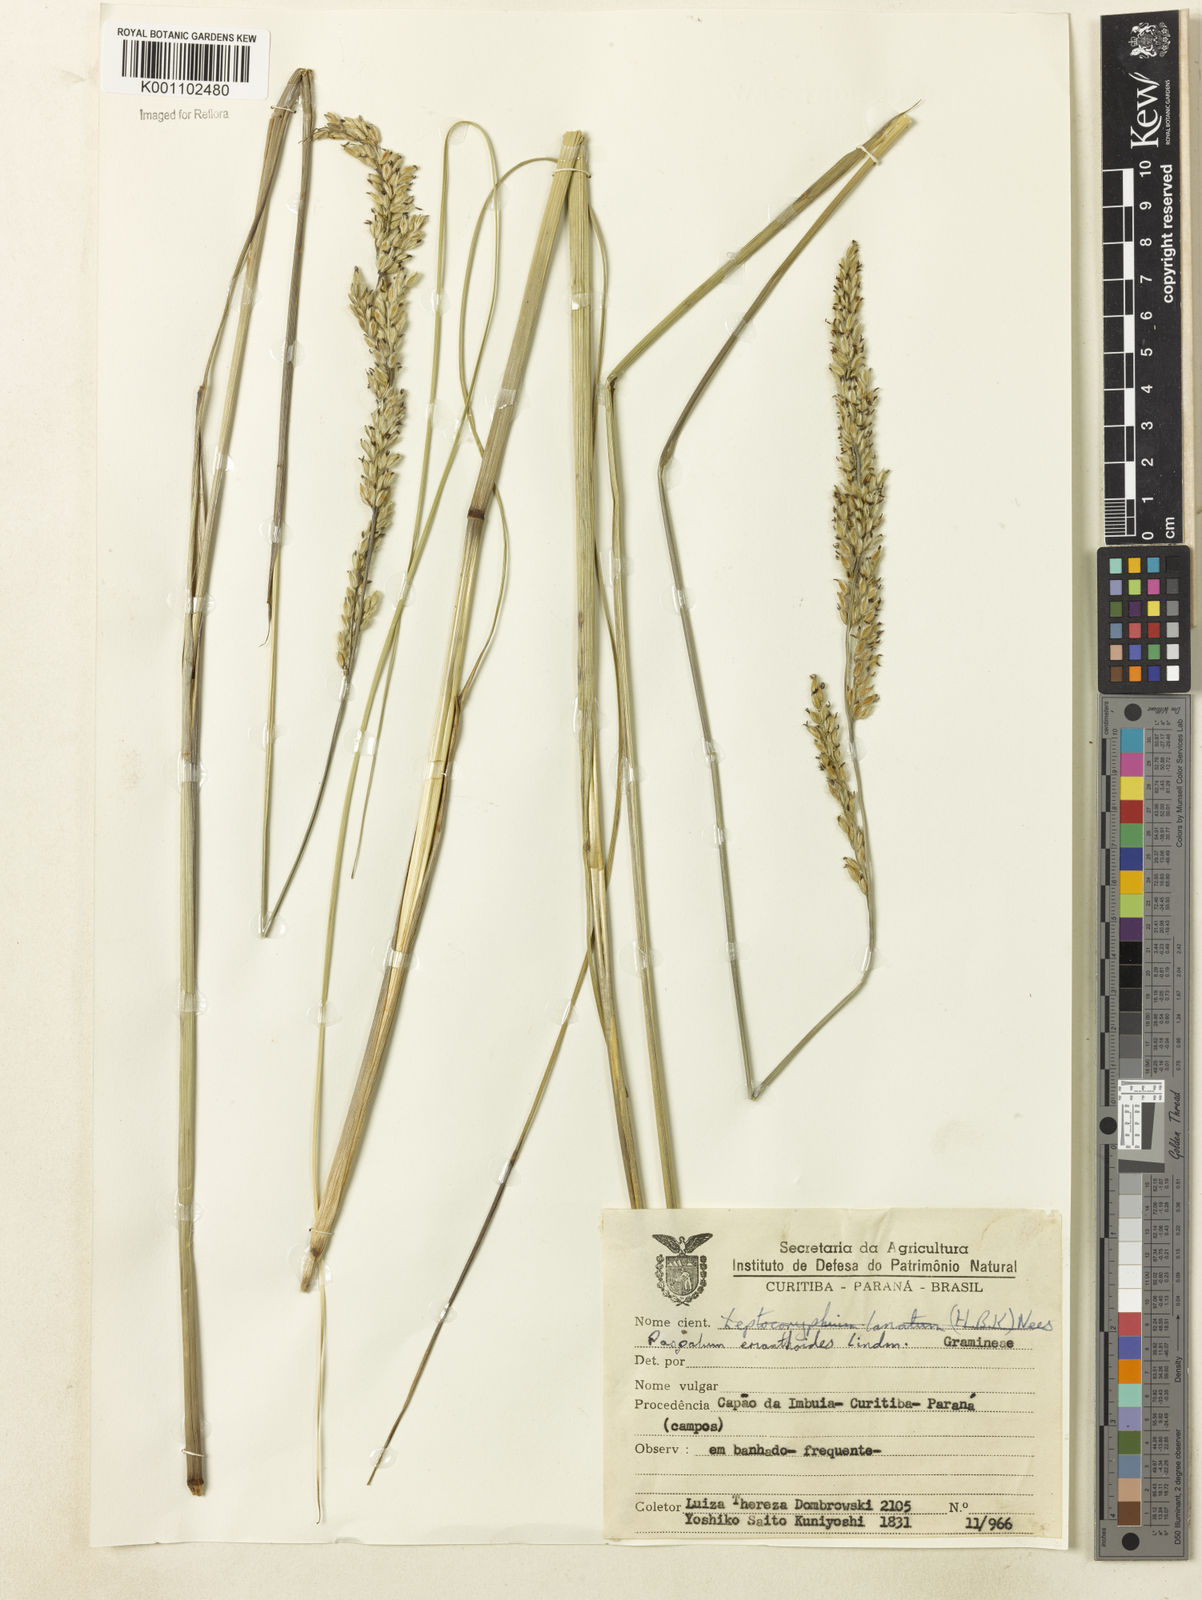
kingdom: Plantae
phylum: Tracheophyta
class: Liliopsida
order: Poales
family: Poaceae
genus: Paspalum
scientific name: Paspalum erianthoides
